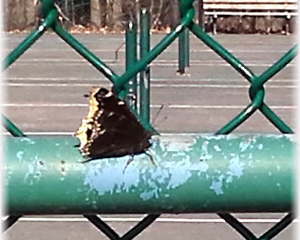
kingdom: Animalia
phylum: Arthropoda
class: Insecta
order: Lepidoptera
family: Nymphalidae
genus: Nymphalis
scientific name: Nymphalis antiopa
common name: Mourning Cloak
